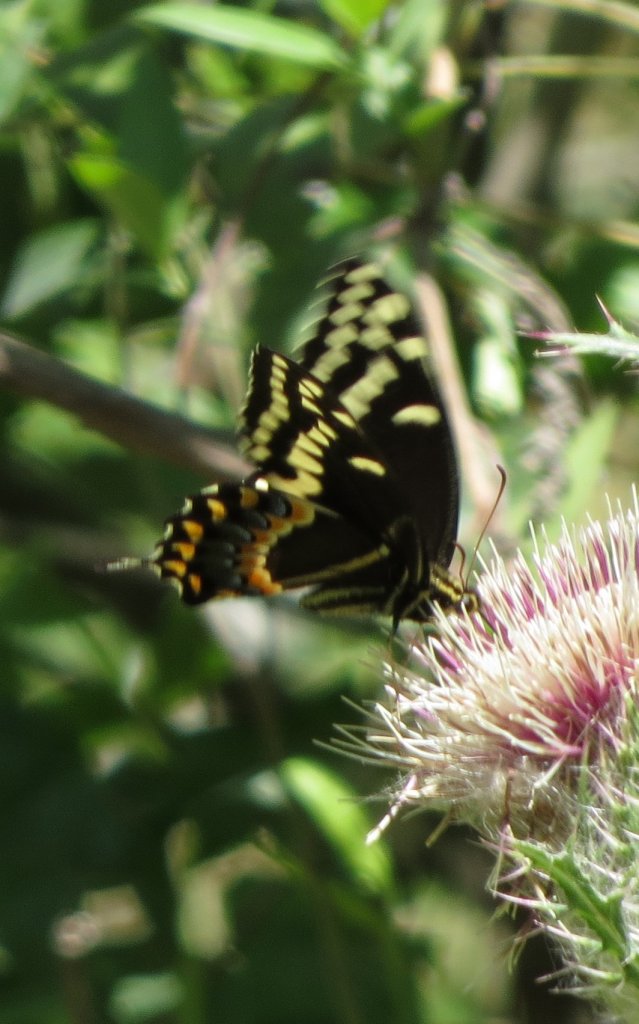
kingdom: Animalia
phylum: Arthropoda
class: Insecta
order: Lepidoptera
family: Papilionidae
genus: Pterourus
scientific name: Pterourus palamedes
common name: Palamedes Swallowtail
